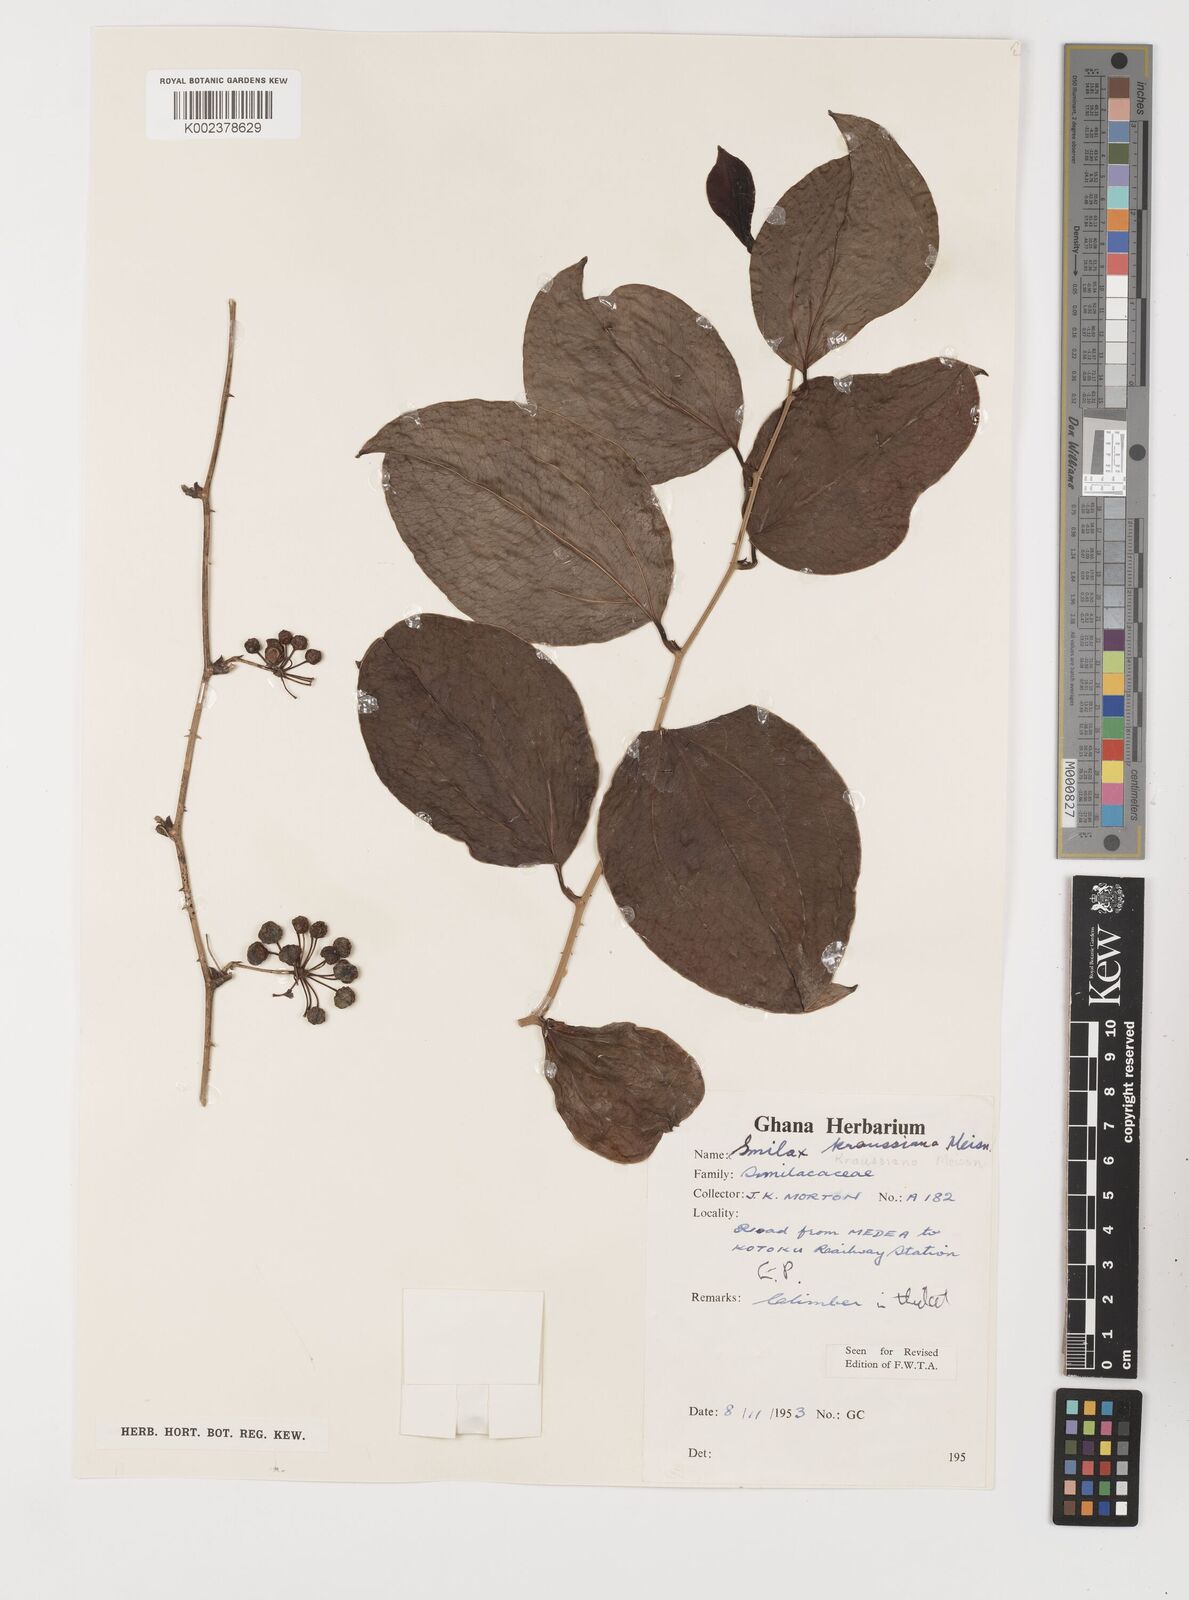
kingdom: Plantae
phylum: Tracheophyta
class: Liliopsida
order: Liliales
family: Smilacaceae
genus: Smilax
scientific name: Smilax anceps
